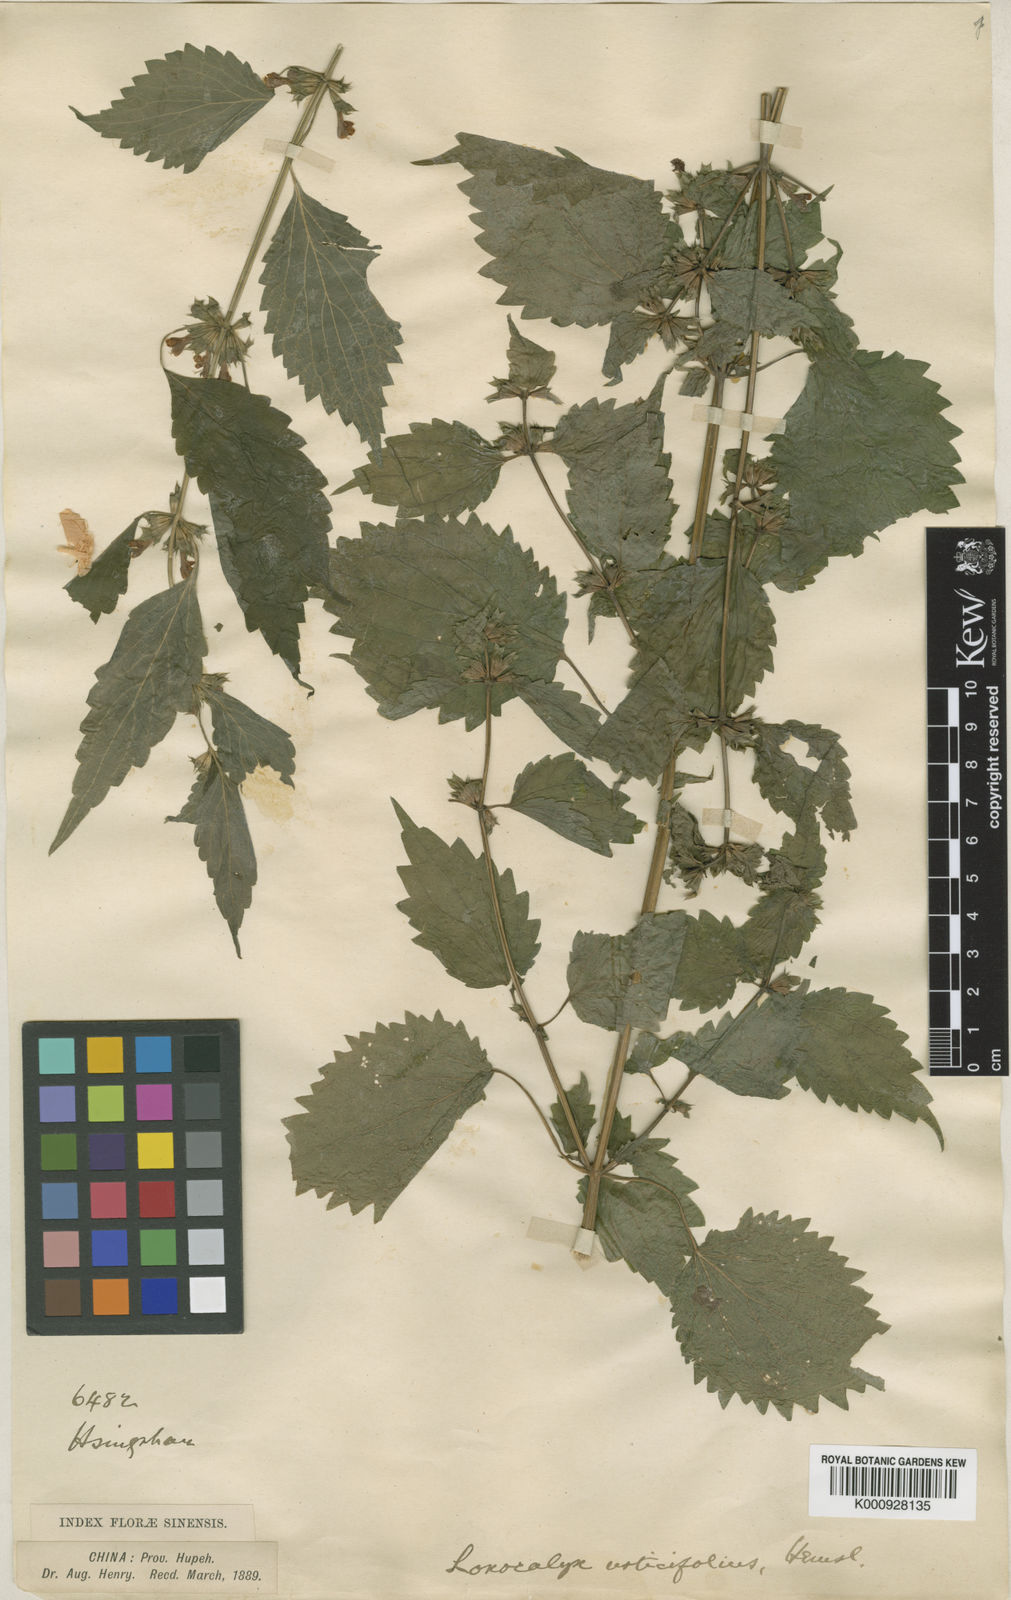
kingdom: Plantae
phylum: Tracheophyta
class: Magnoliopsida
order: Lamiales
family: Lamiaceae
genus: Loxocalyx
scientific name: Loxocalyx urticifolius
